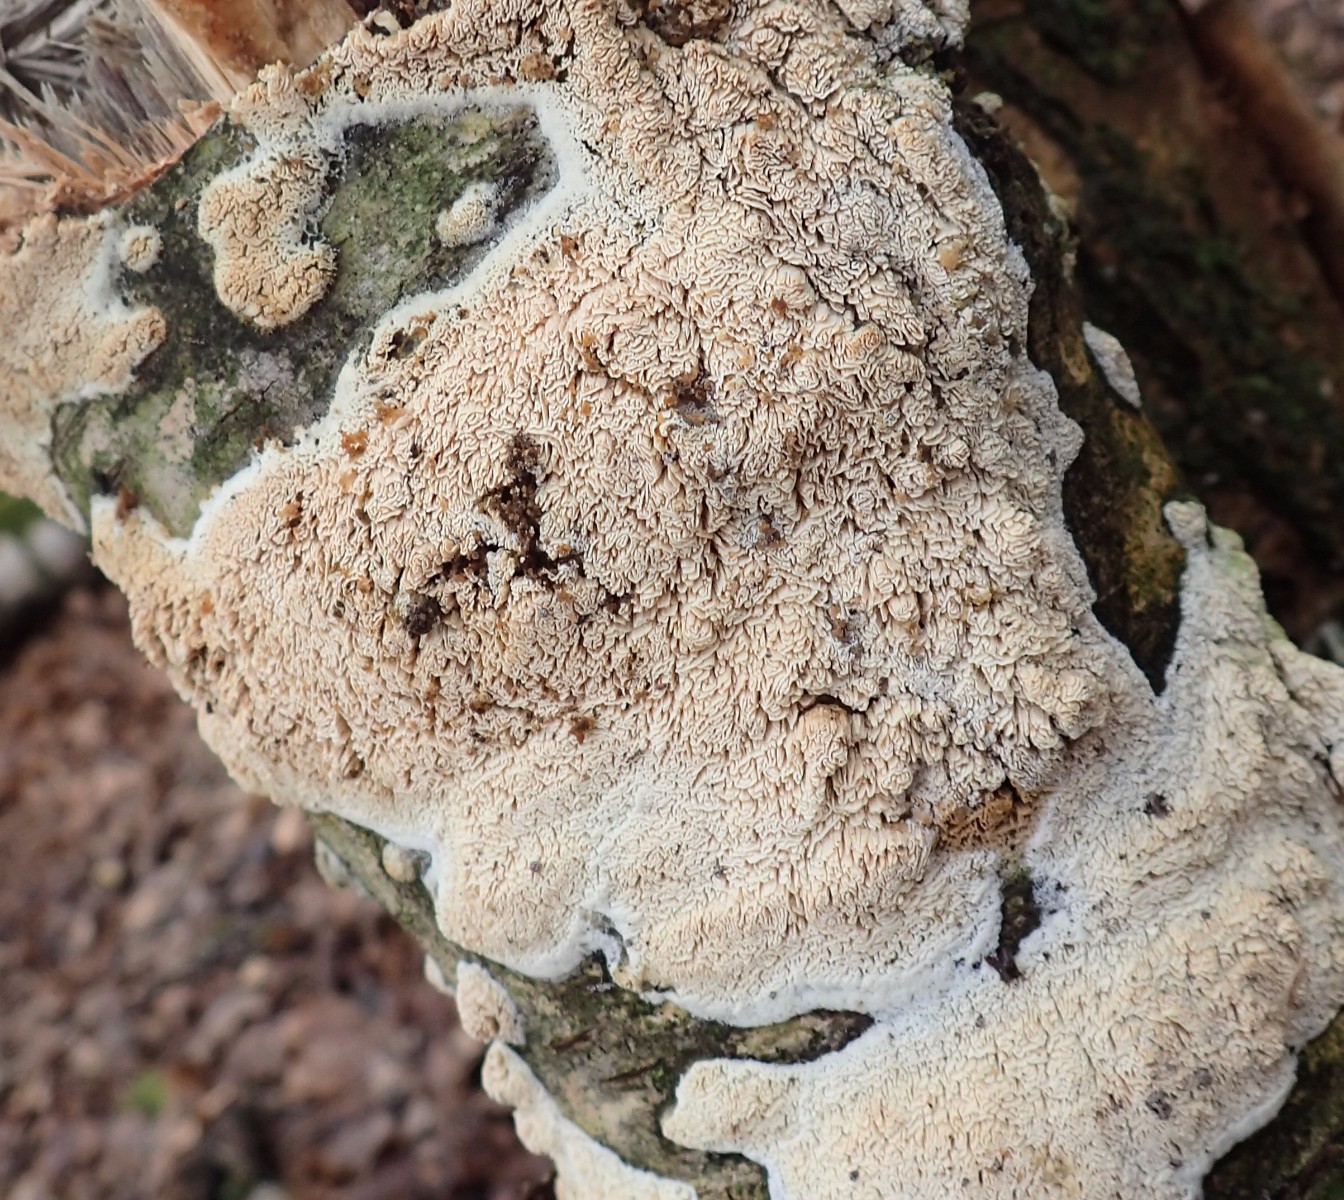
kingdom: Fungi
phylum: Basidiomycota
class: Agaricomycetes
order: Hymenochaetales
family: Schizoporaceae
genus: Xylodon
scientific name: Xylodon subtropicus
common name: labyrint-tandsvamp
